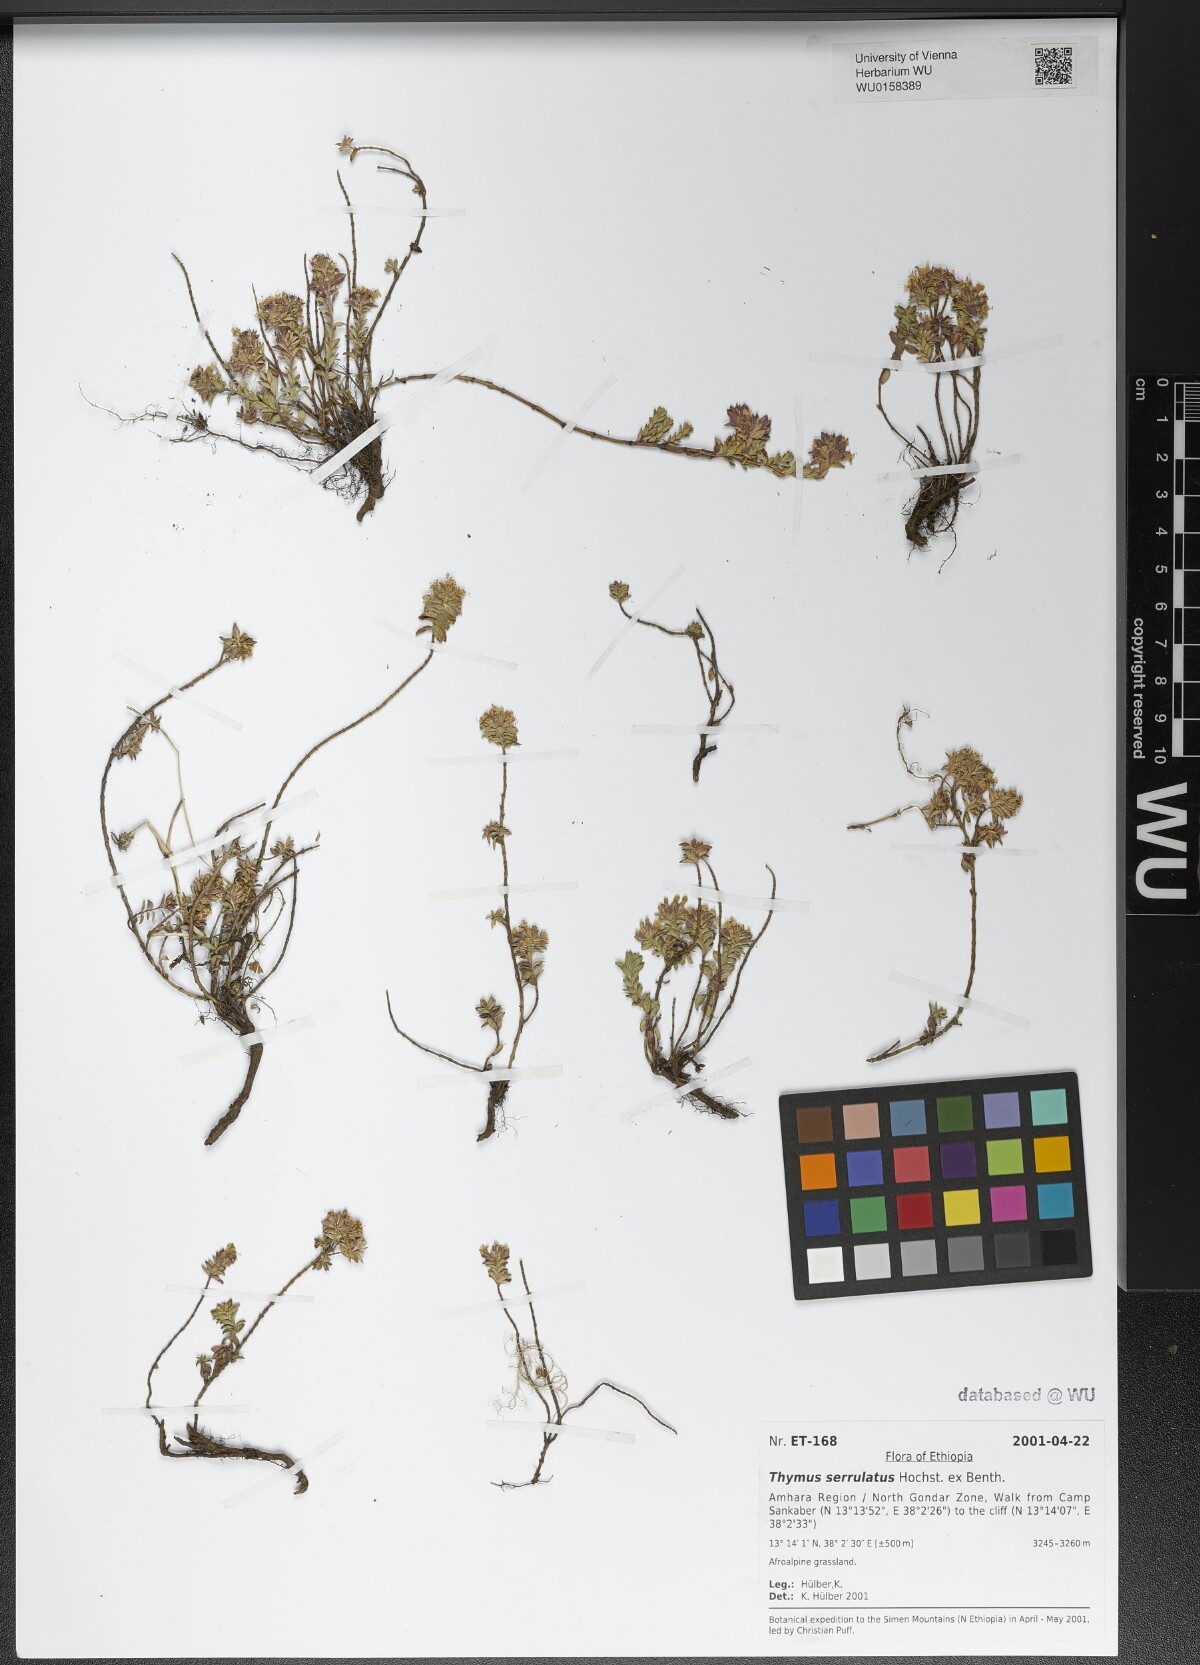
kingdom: Plantae
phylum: Tracheophyta
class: Magnoliopsida
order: Lamiales
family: Lamiaceae
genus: Thymus
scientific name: Thymus serrulatus
